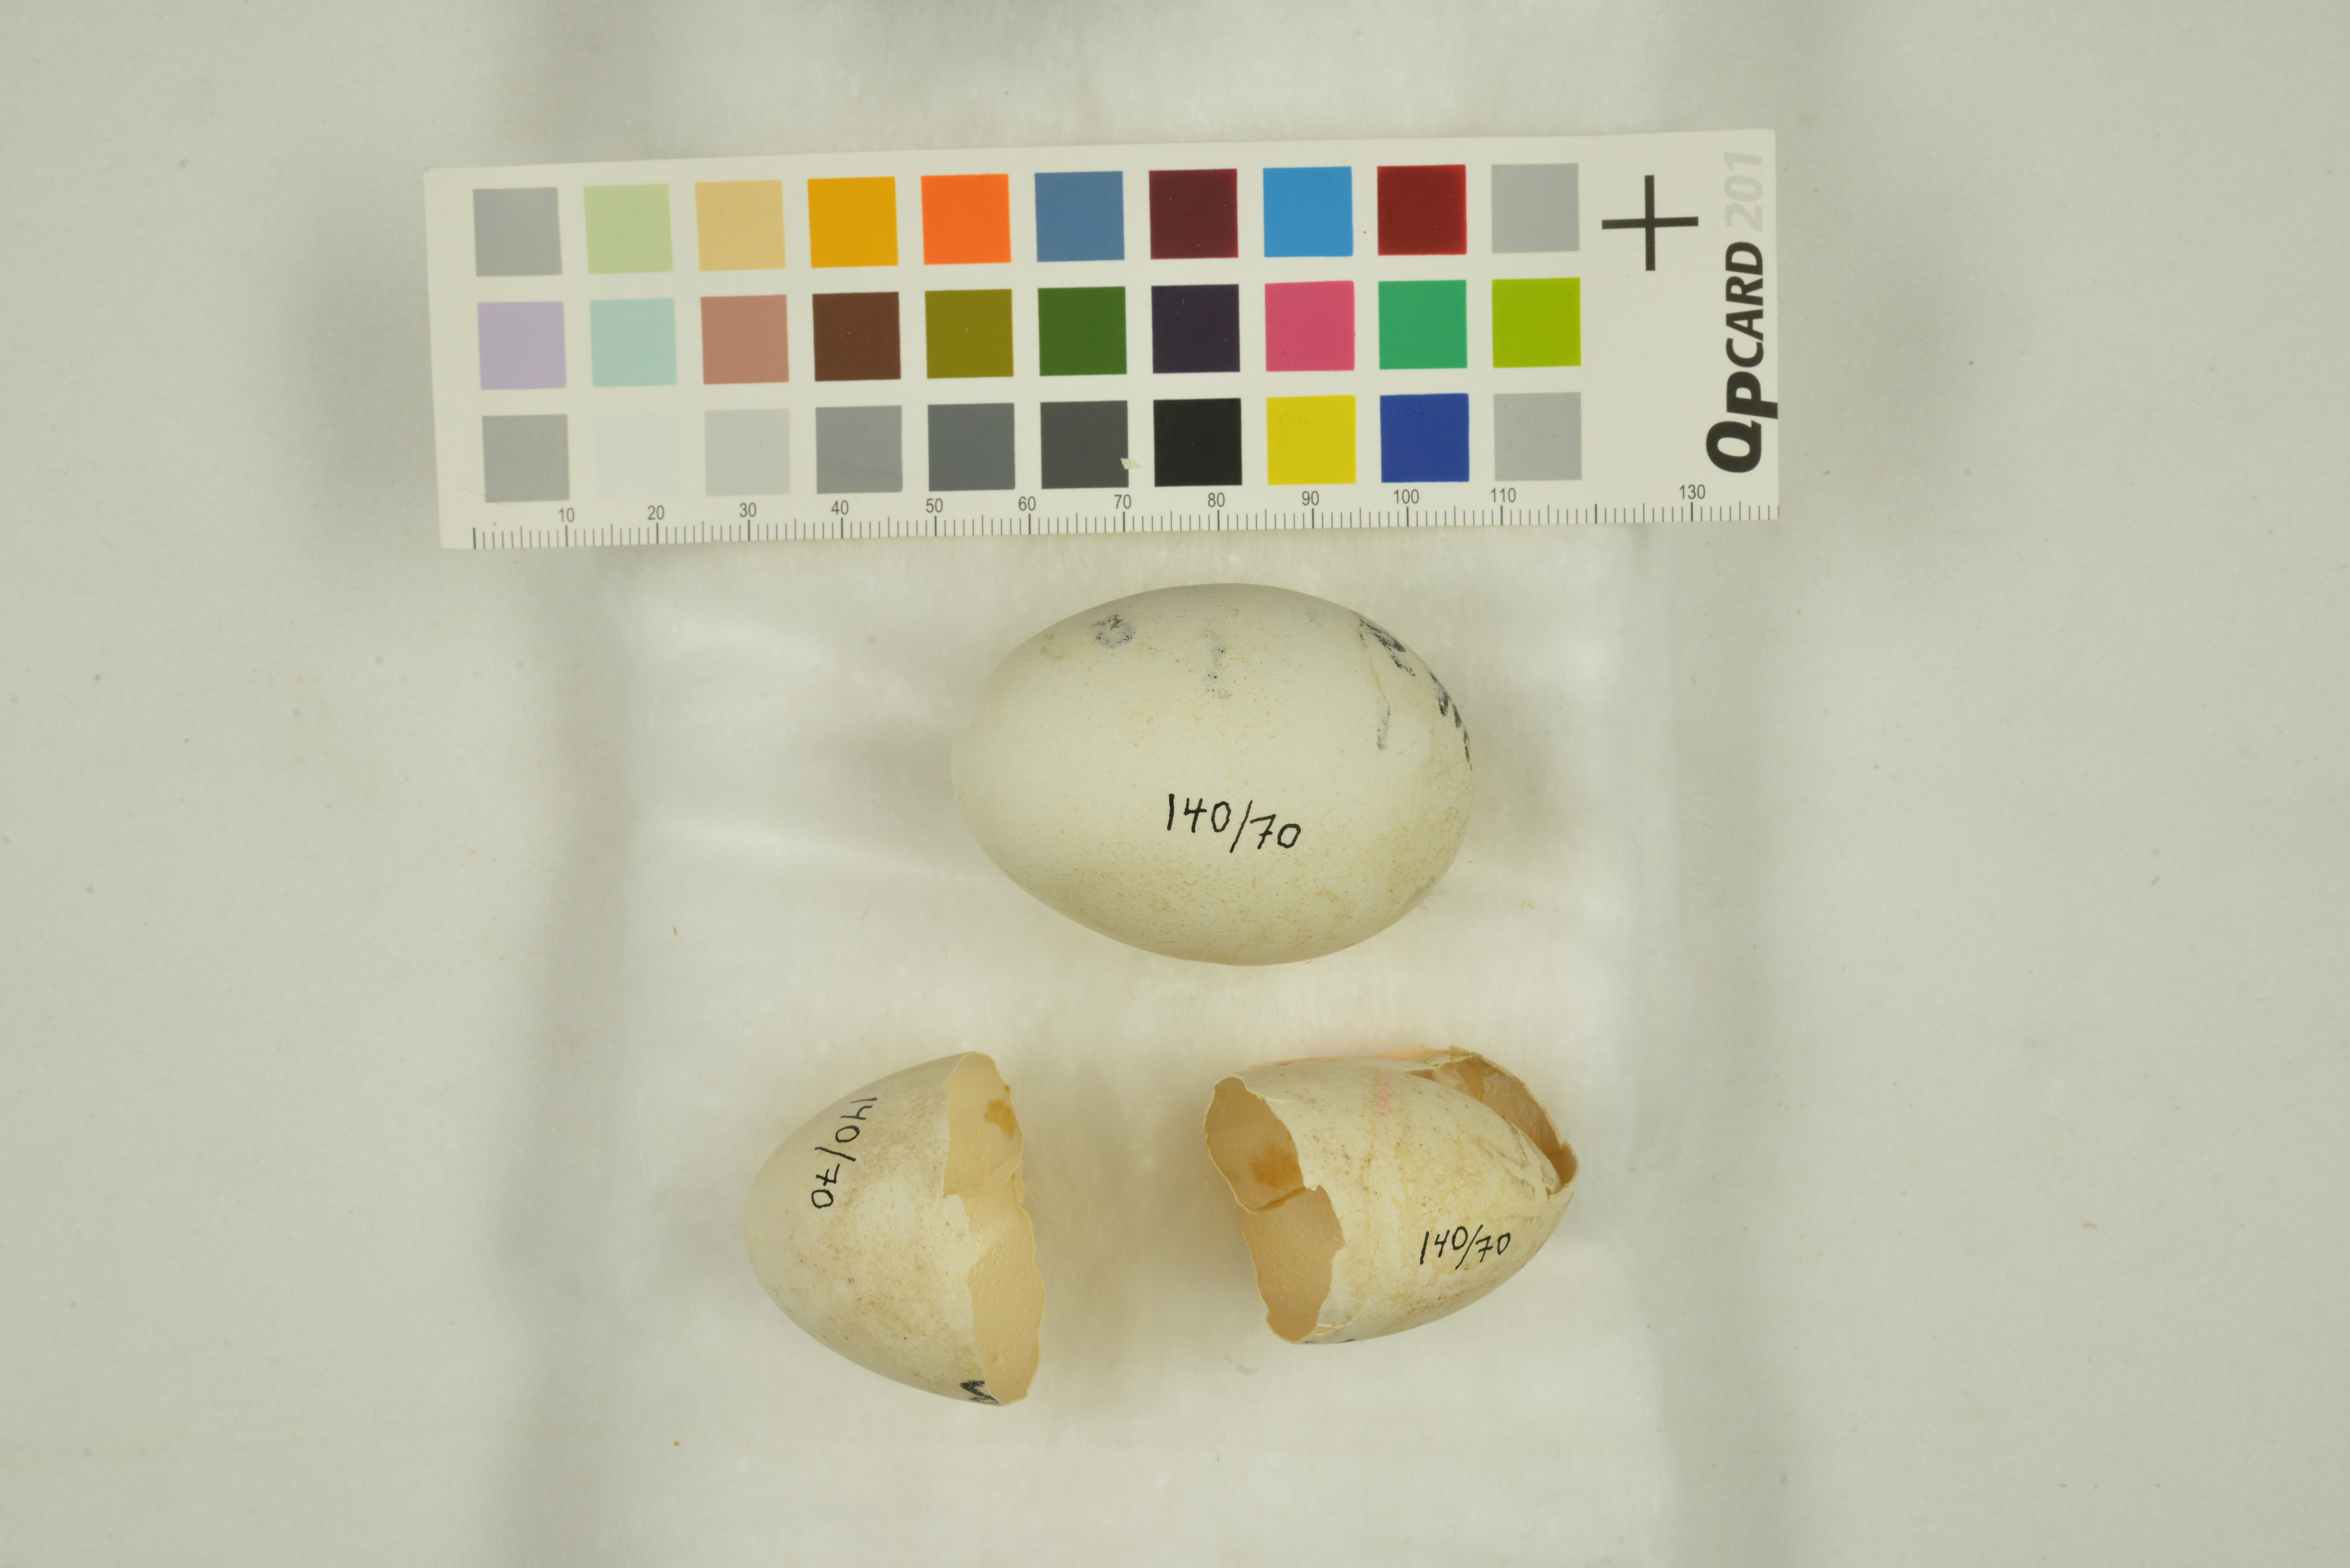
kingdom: Animalia
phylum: Chordata
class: Aves
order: Procellariiformes
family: Procellariidae
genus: Pagodroma
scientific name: Pagodroma nivea
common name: Snow petrel
